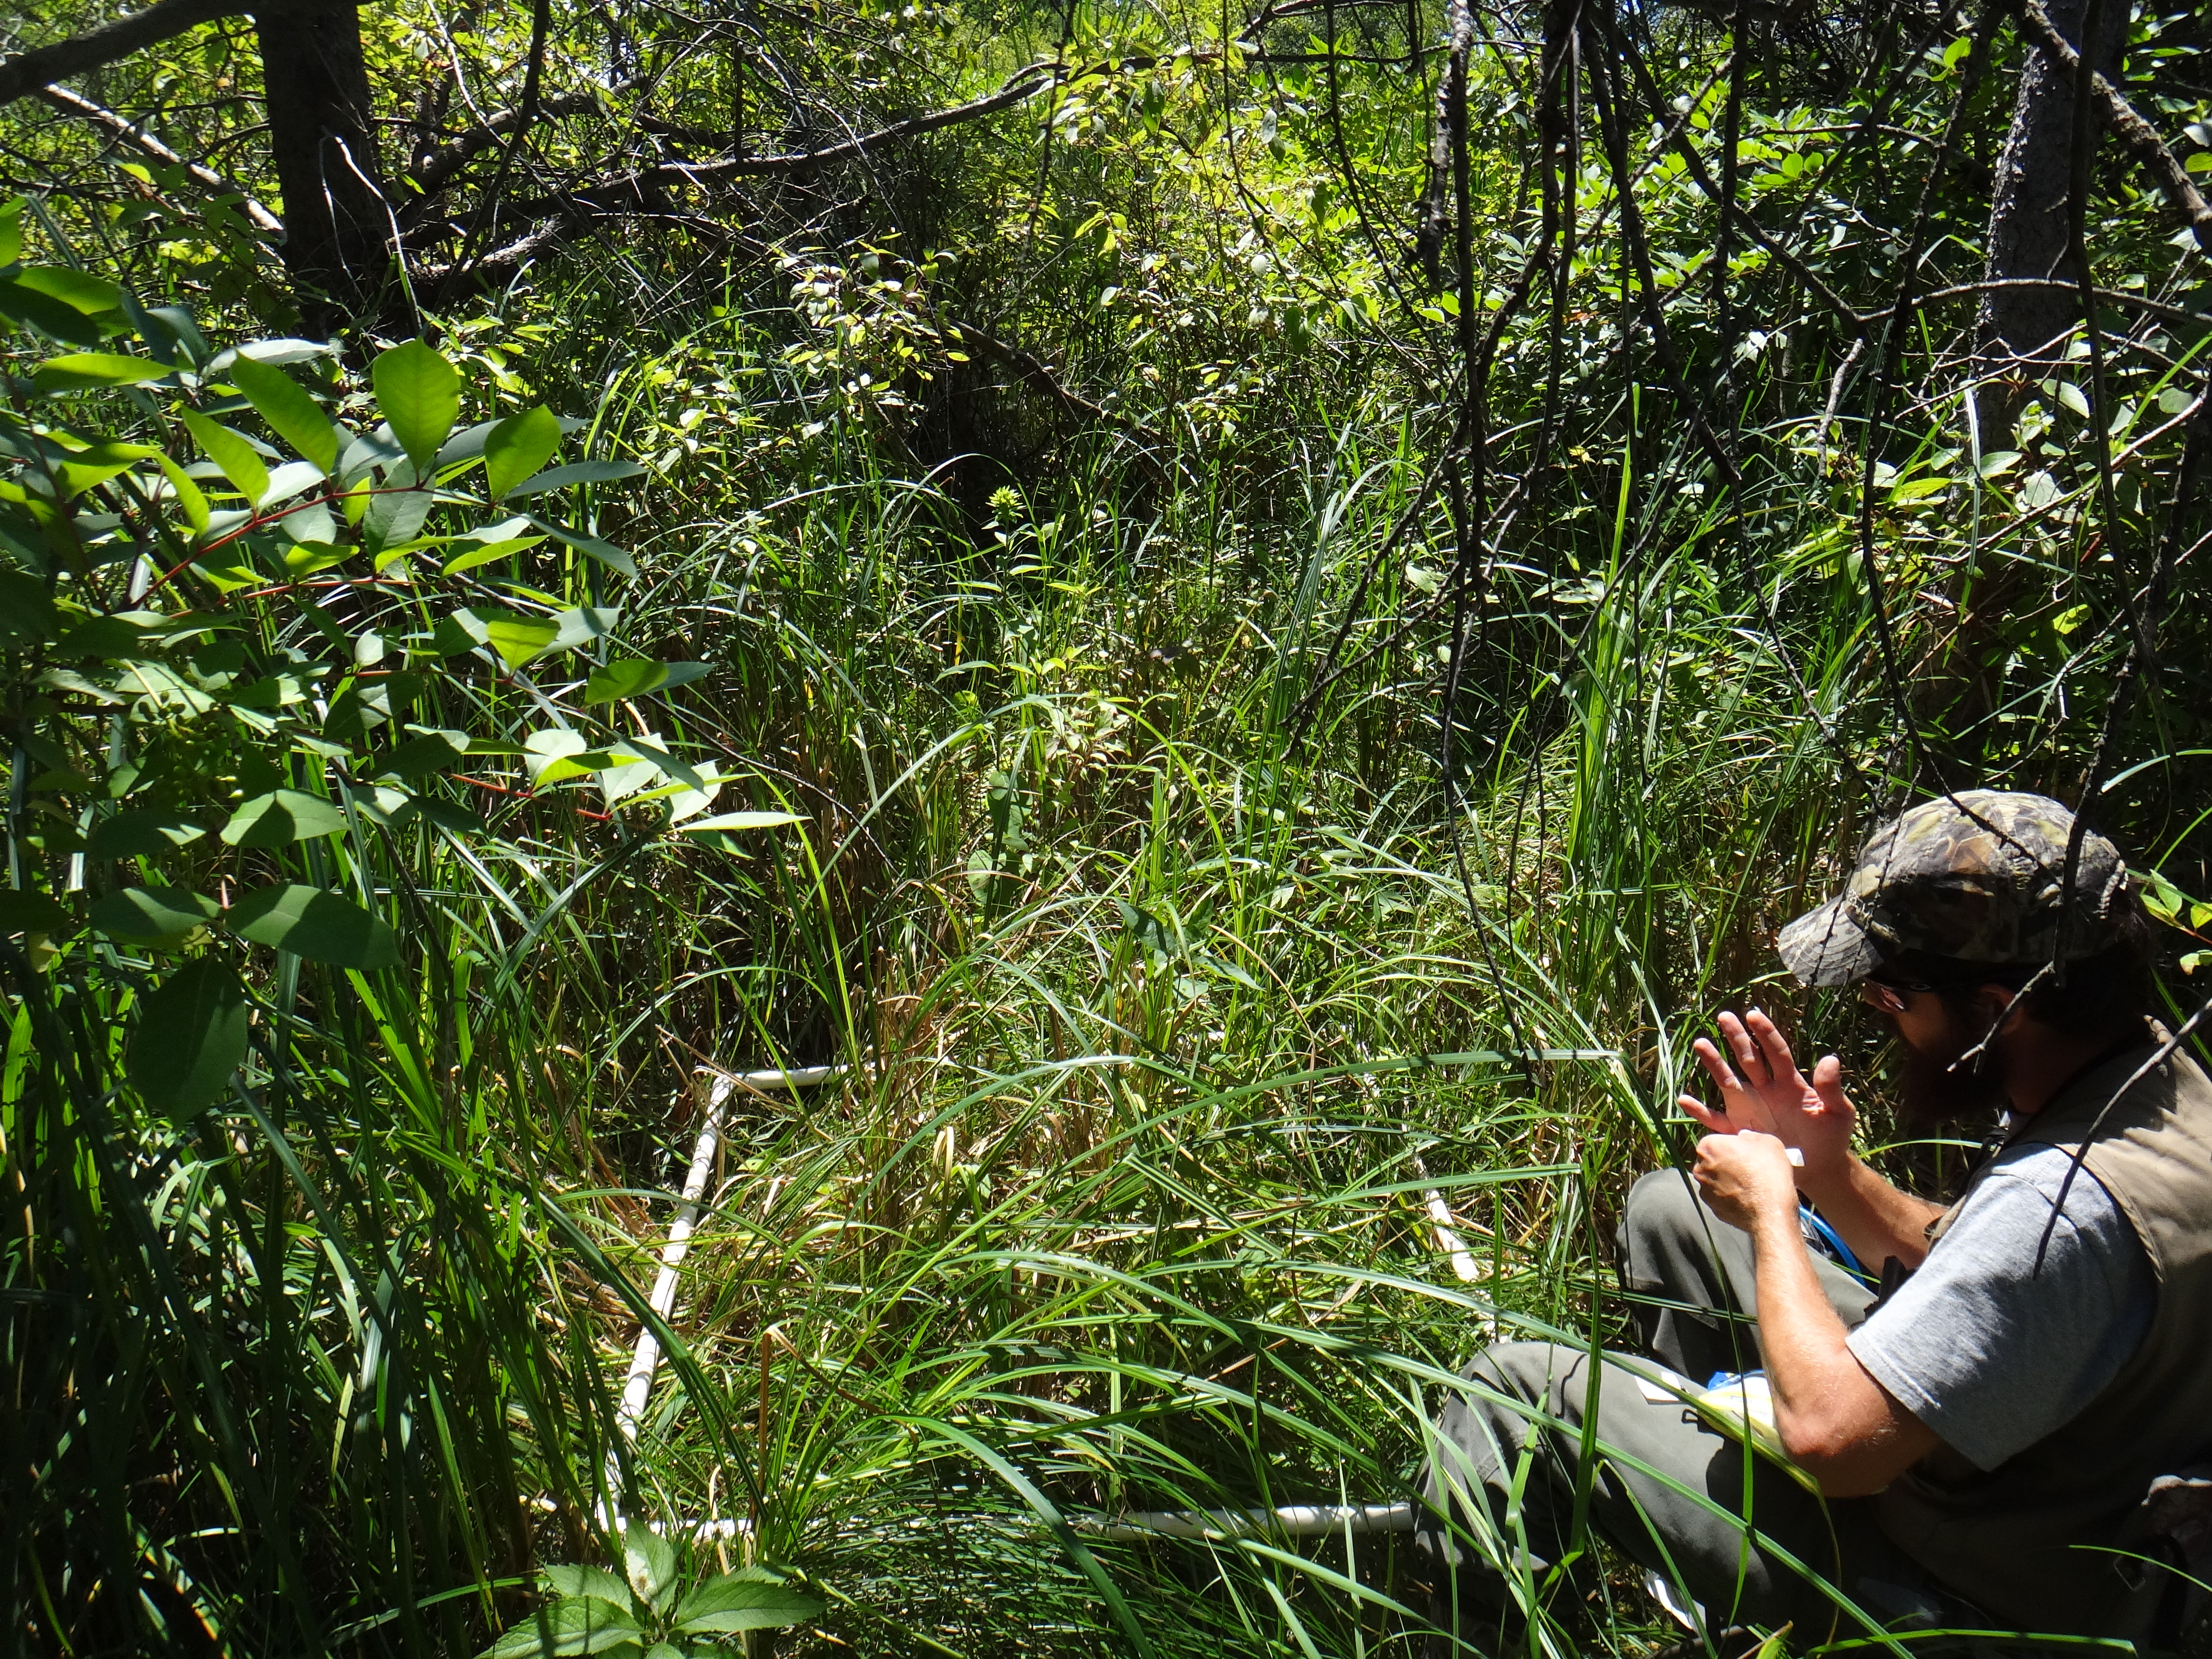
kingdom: Plantae
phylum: Tracheophyta
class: Liliopsida
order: Poales
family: Poaceae
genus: Glyceria
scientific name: Glyceria striata
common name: Fowl manna grass
